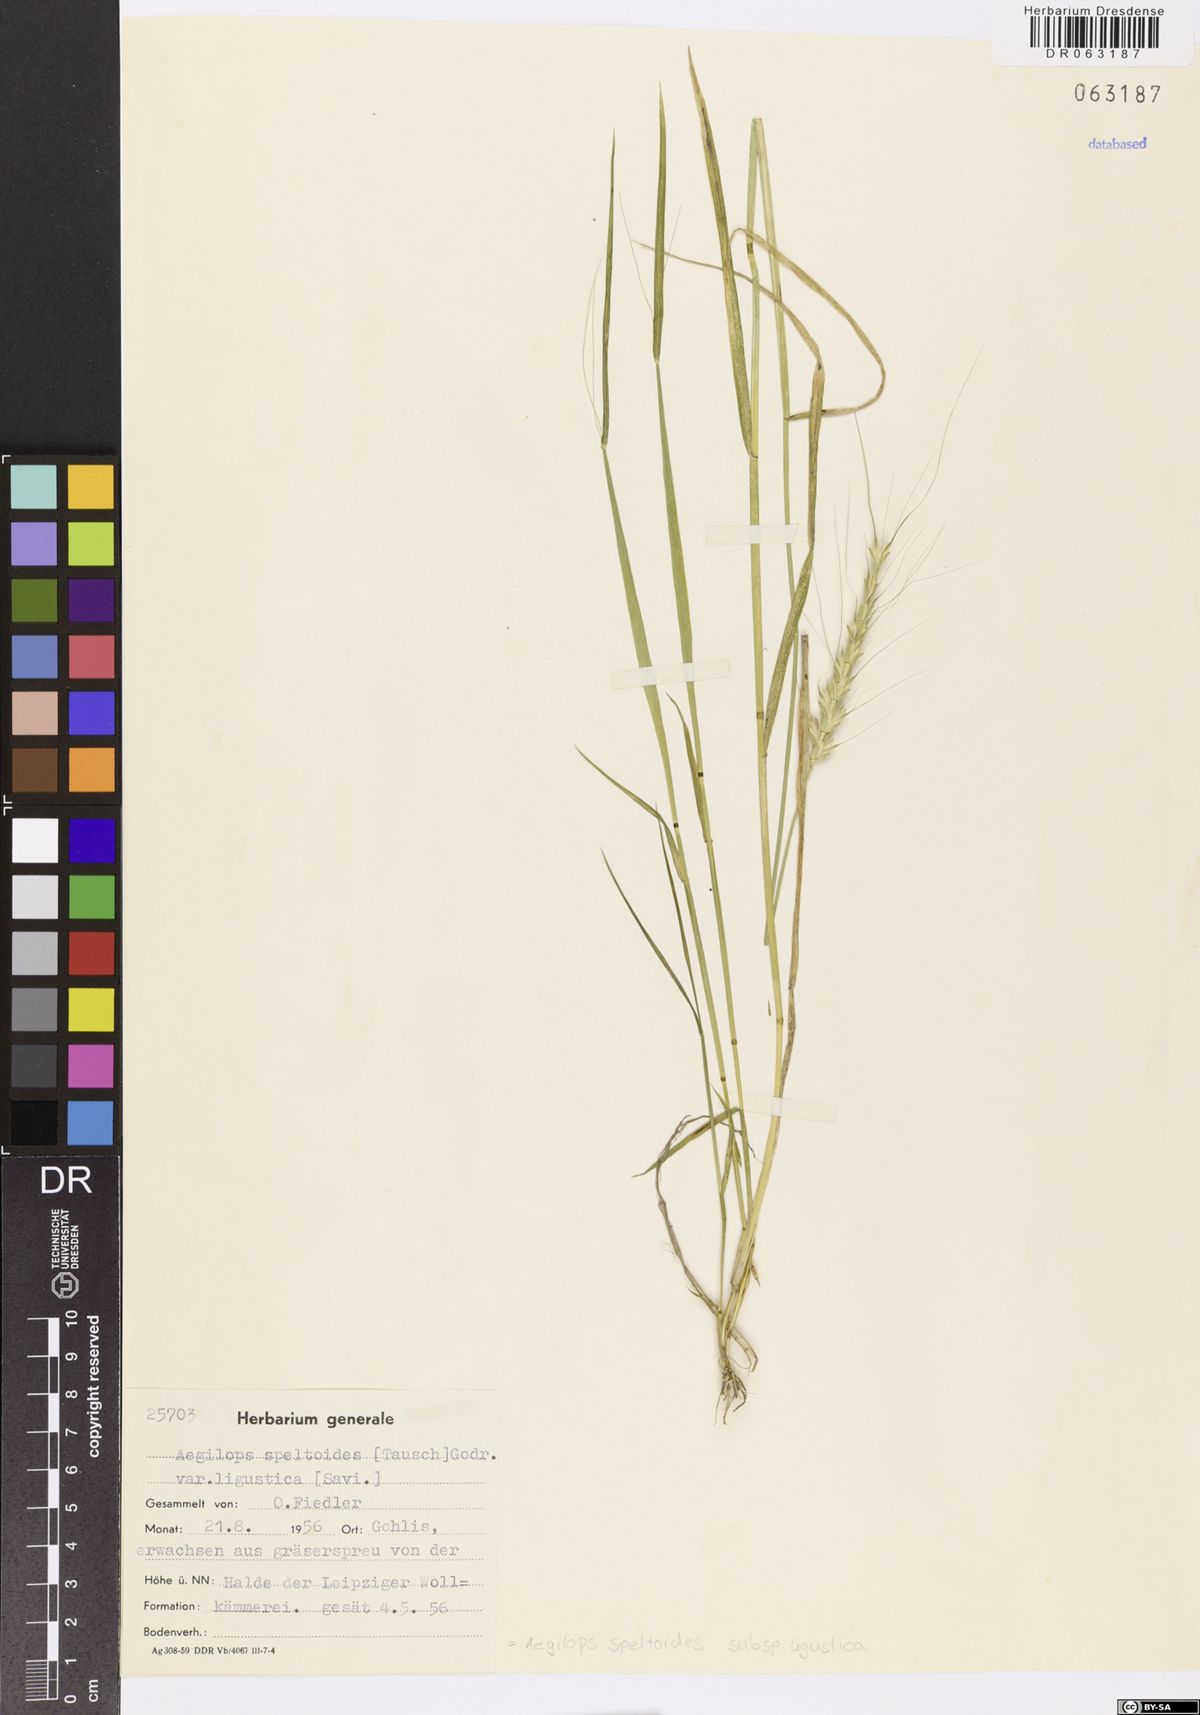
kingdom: Plantae
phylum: Tracheophyta
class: Liliopsida
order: Poales
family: Poaceae
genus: Aegilops
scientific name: Aegilops speltoides
